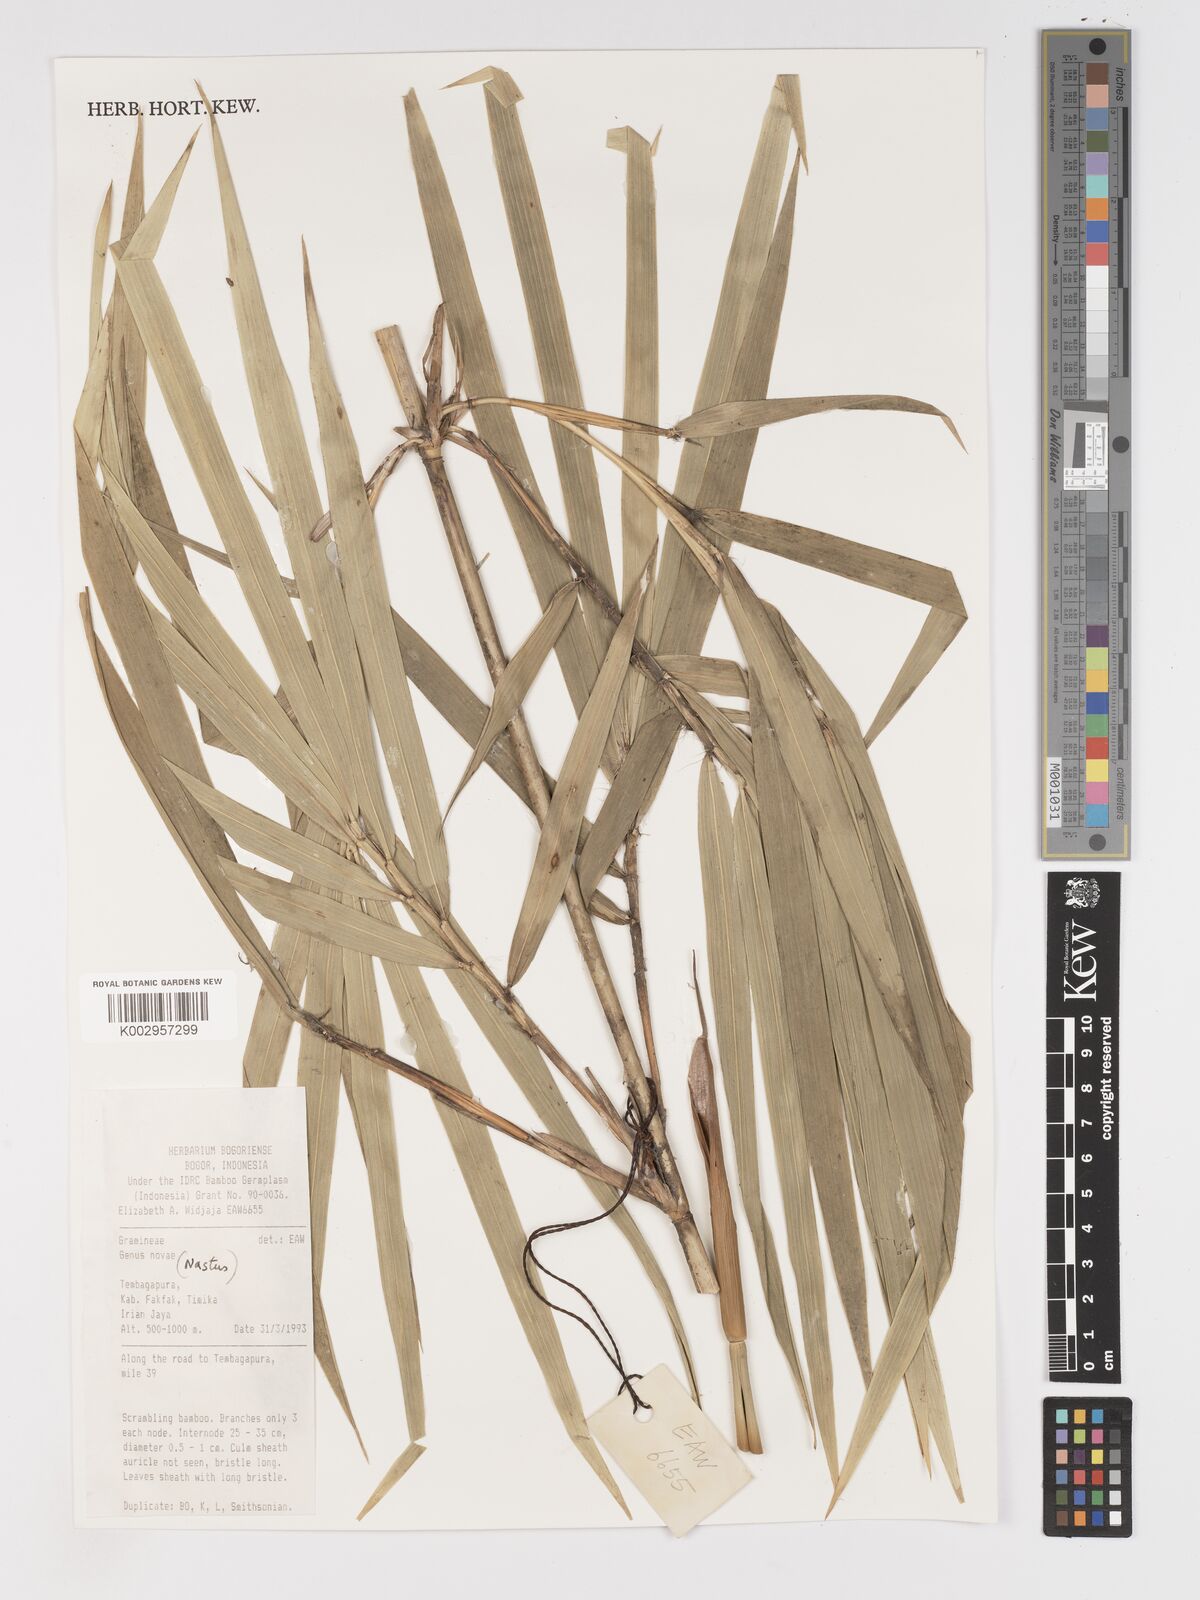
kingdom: Plantae
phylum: Tracheophyta
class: Liliopsida
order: Poales
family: Poaceae
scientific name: Poaceae
